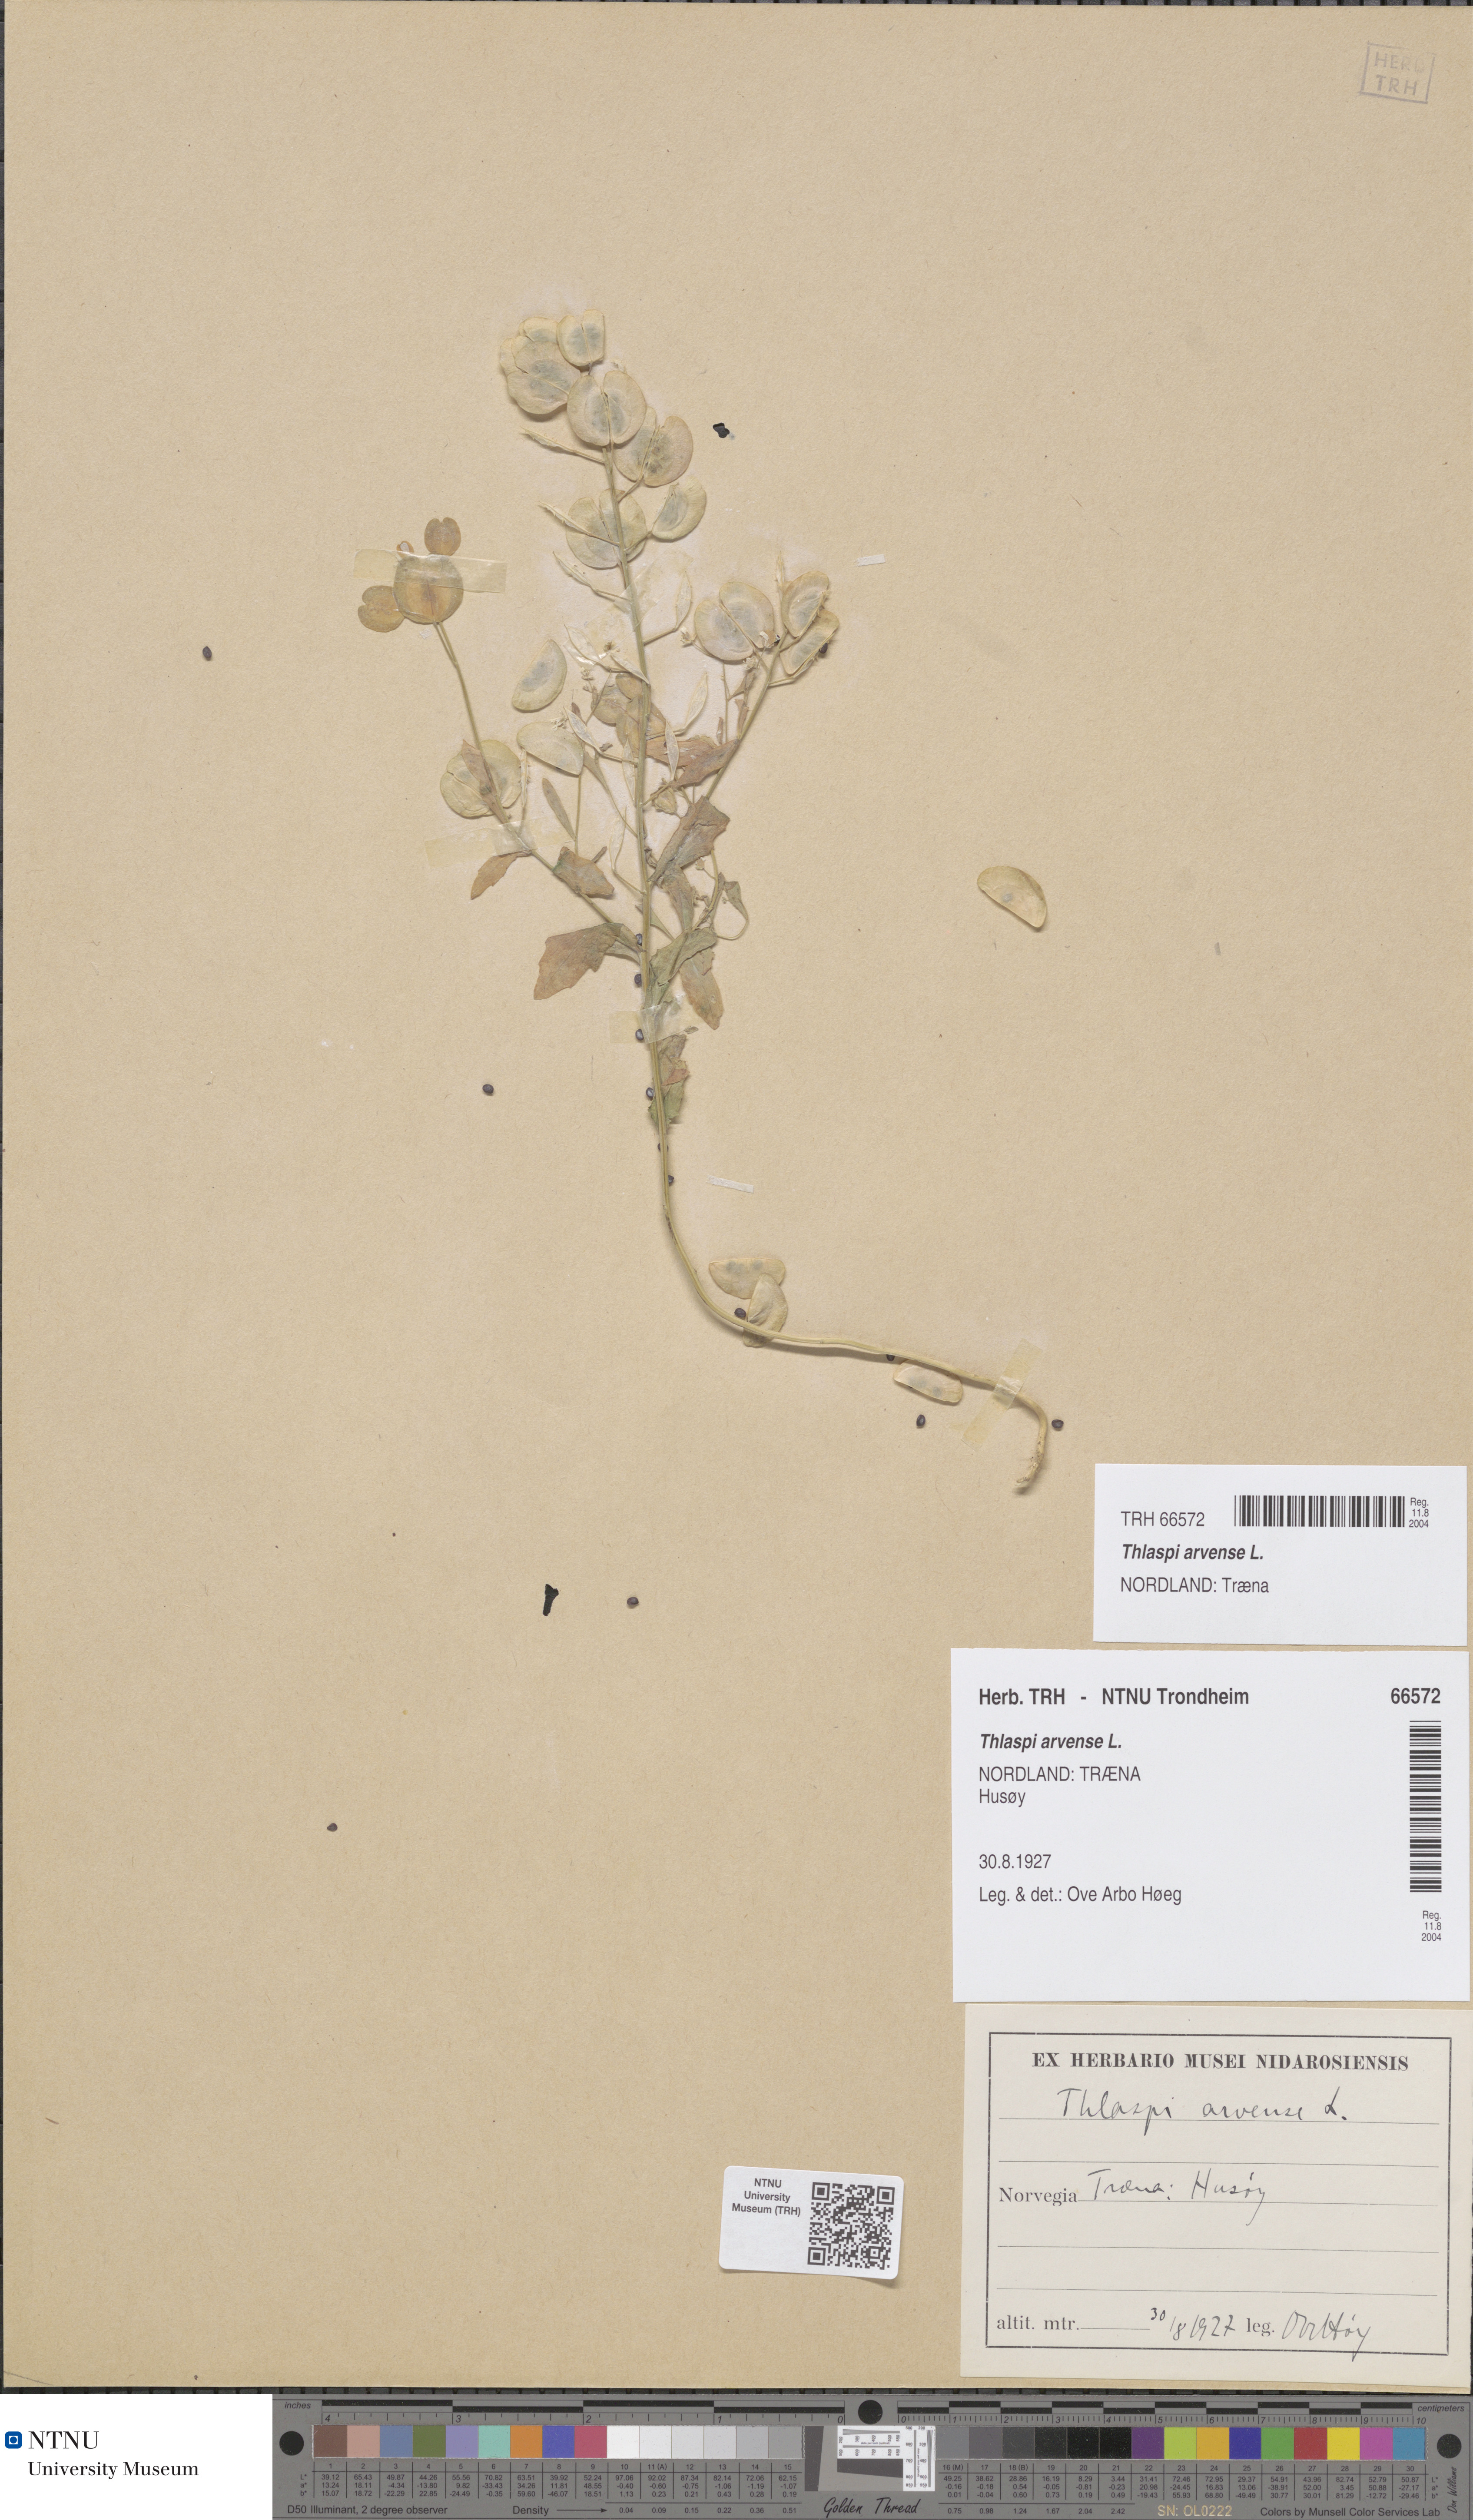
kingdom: Plantae
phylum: Tracheophyta
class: Magnoliopsida
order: Brassicales
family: Brassicaceae
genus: Thlaspi
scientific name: Thlaspi arvense
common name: Field pennycress
